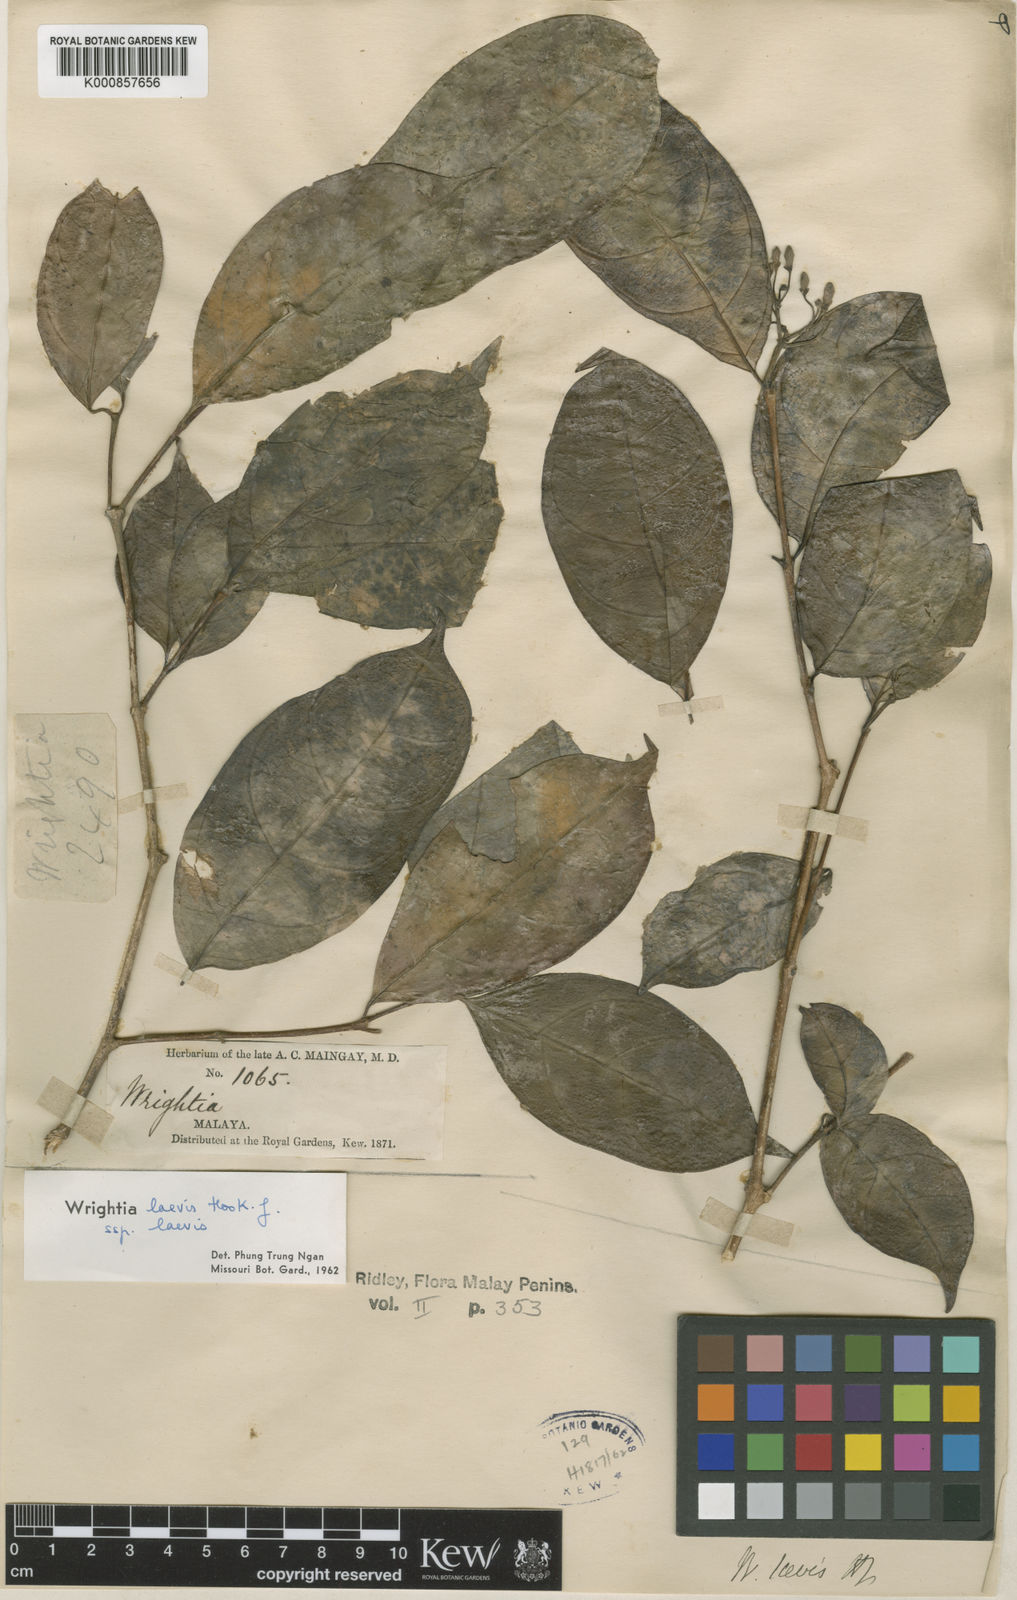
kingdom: Plantae
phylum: Tracheophyta
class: Magnoliopsida
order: Gentianales
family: Apocynaceae
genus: Wrightia
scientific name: Wrightia laevis
